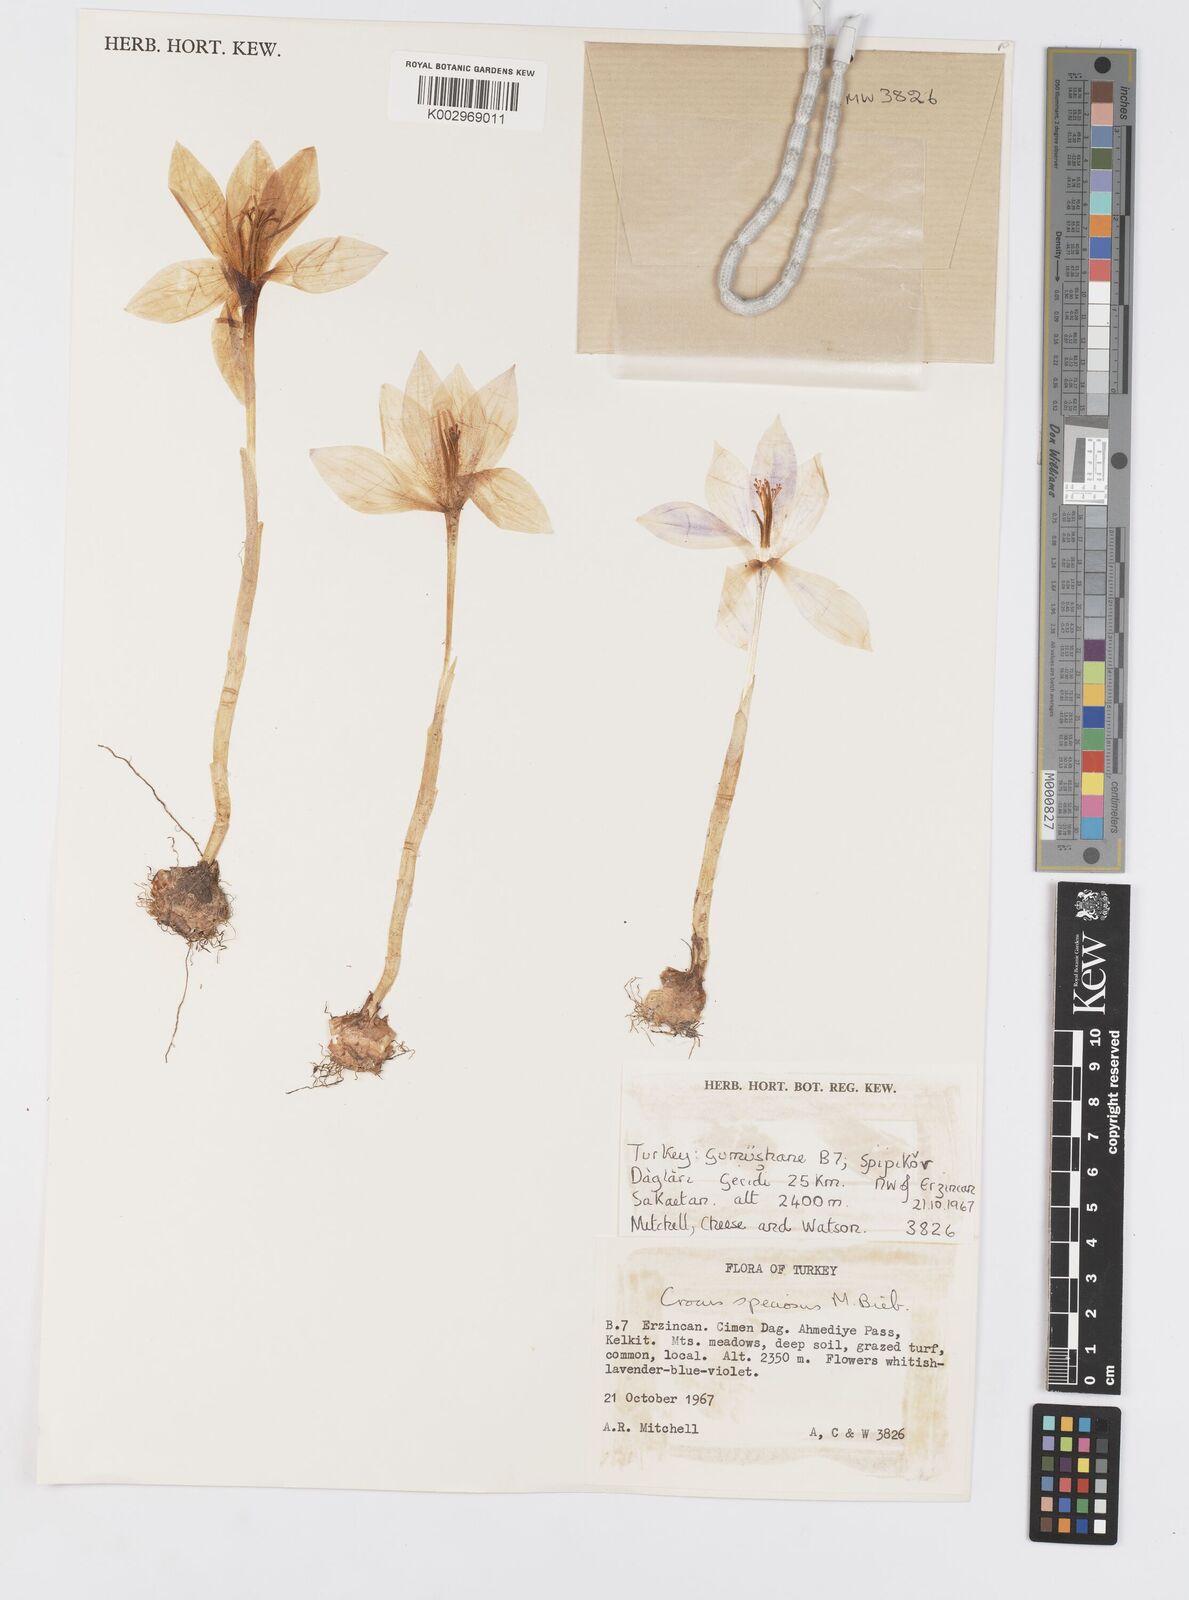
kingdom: Plantae
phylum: Tracheophyta
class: Liliopsida
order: Asparagales
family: Iridaceae
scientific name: Iridaceae
